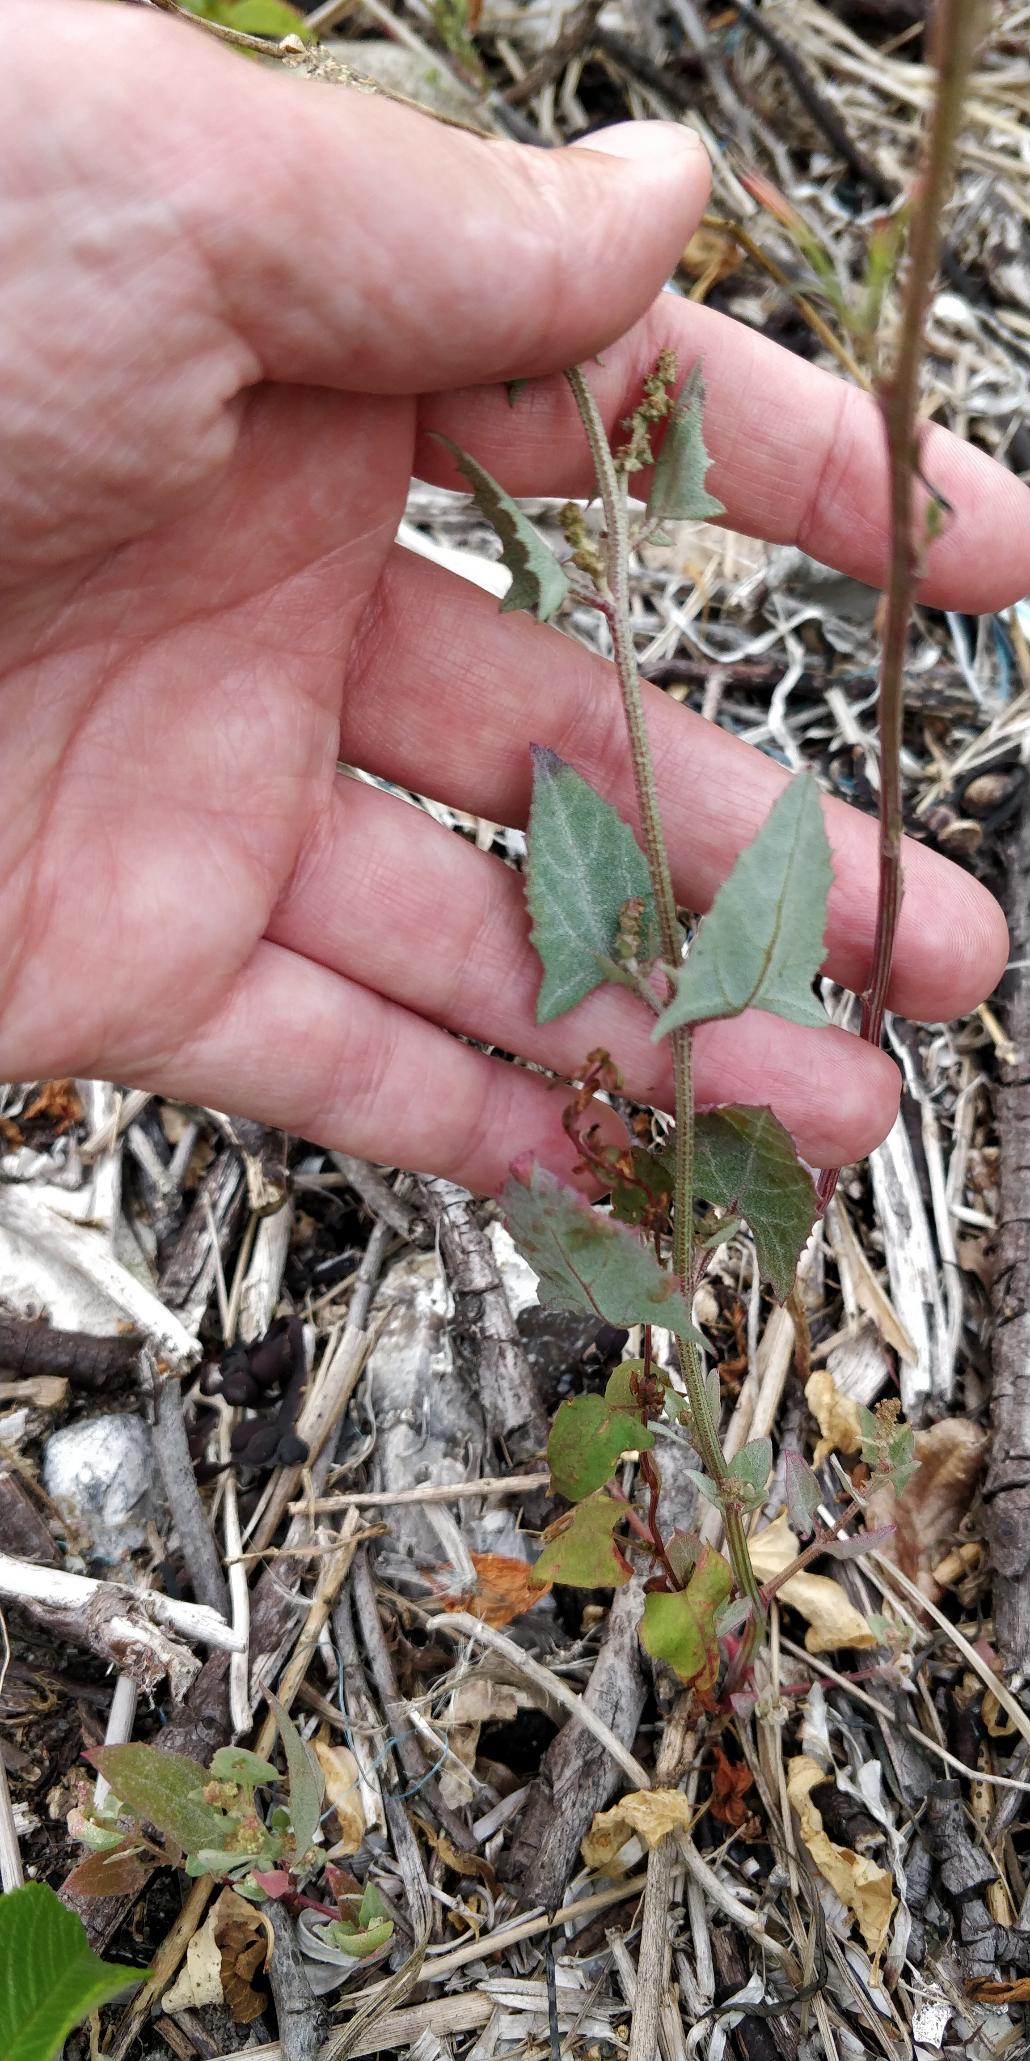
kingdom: Plantae
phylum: Tracheophyta
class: Magnoliopsida
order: Caryophyllales
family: Amaranthaceae
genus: Atriplex
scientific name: Atriplex prostrata
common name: Spyd-mælde
